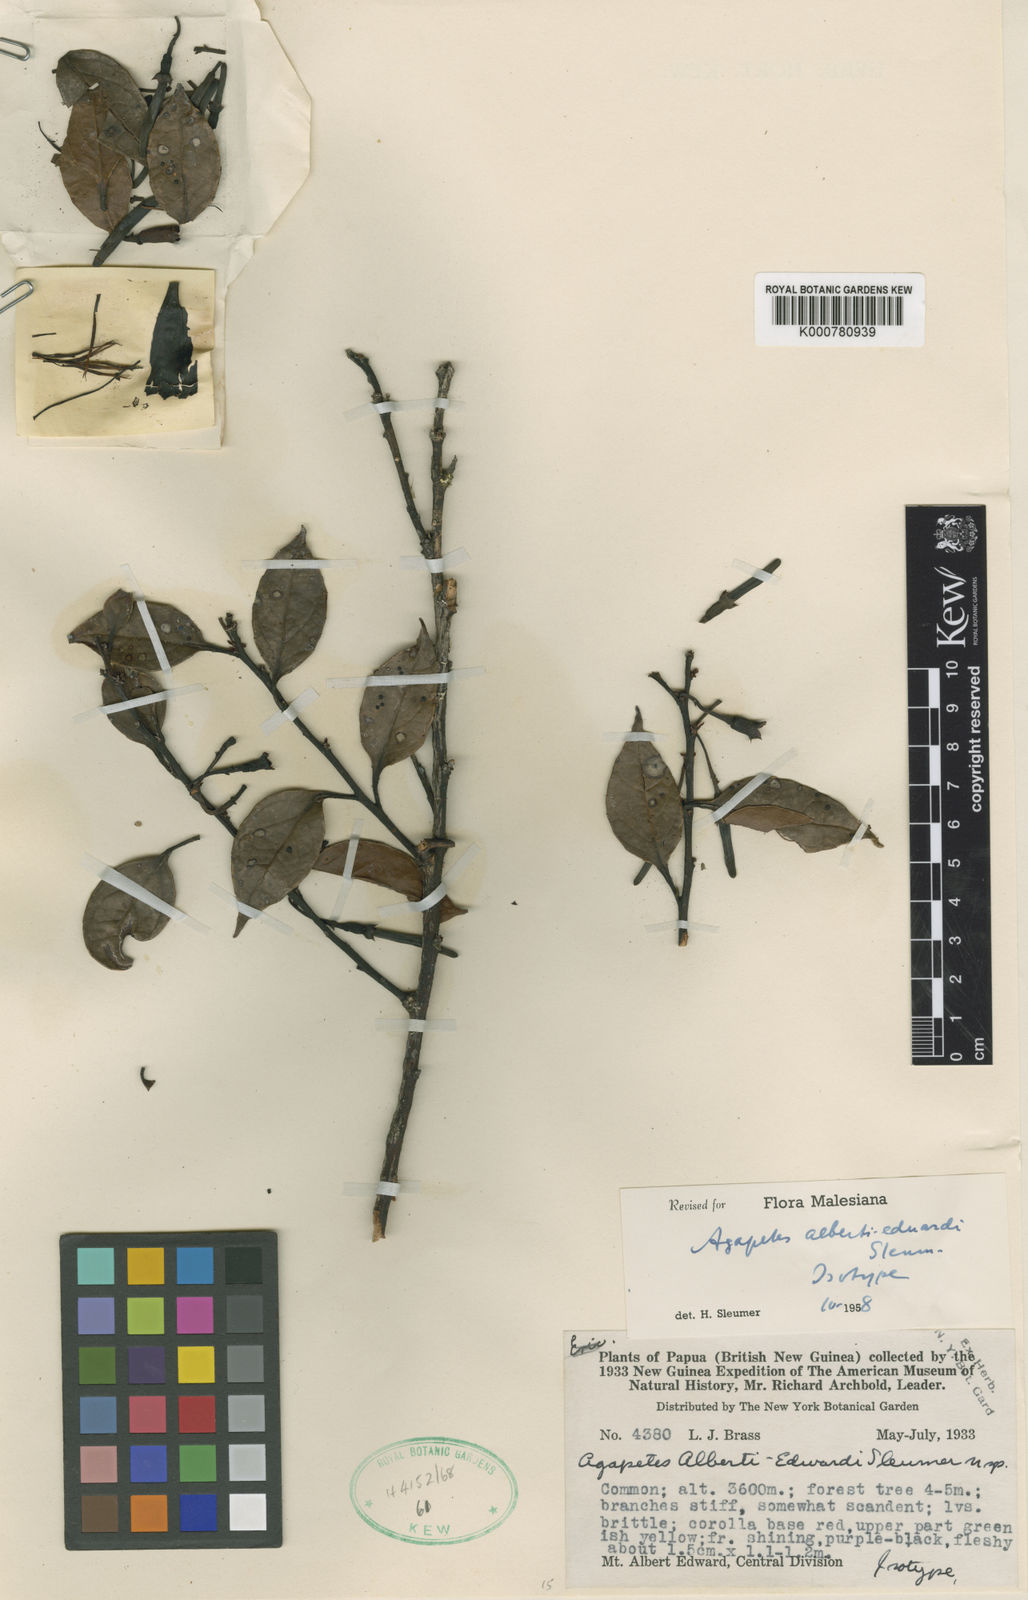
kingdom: Plantae
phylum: Tracheophyta
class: Magnoliopsida
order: Ericales
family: Ericaceae
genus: Paphia
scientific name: Paphia
